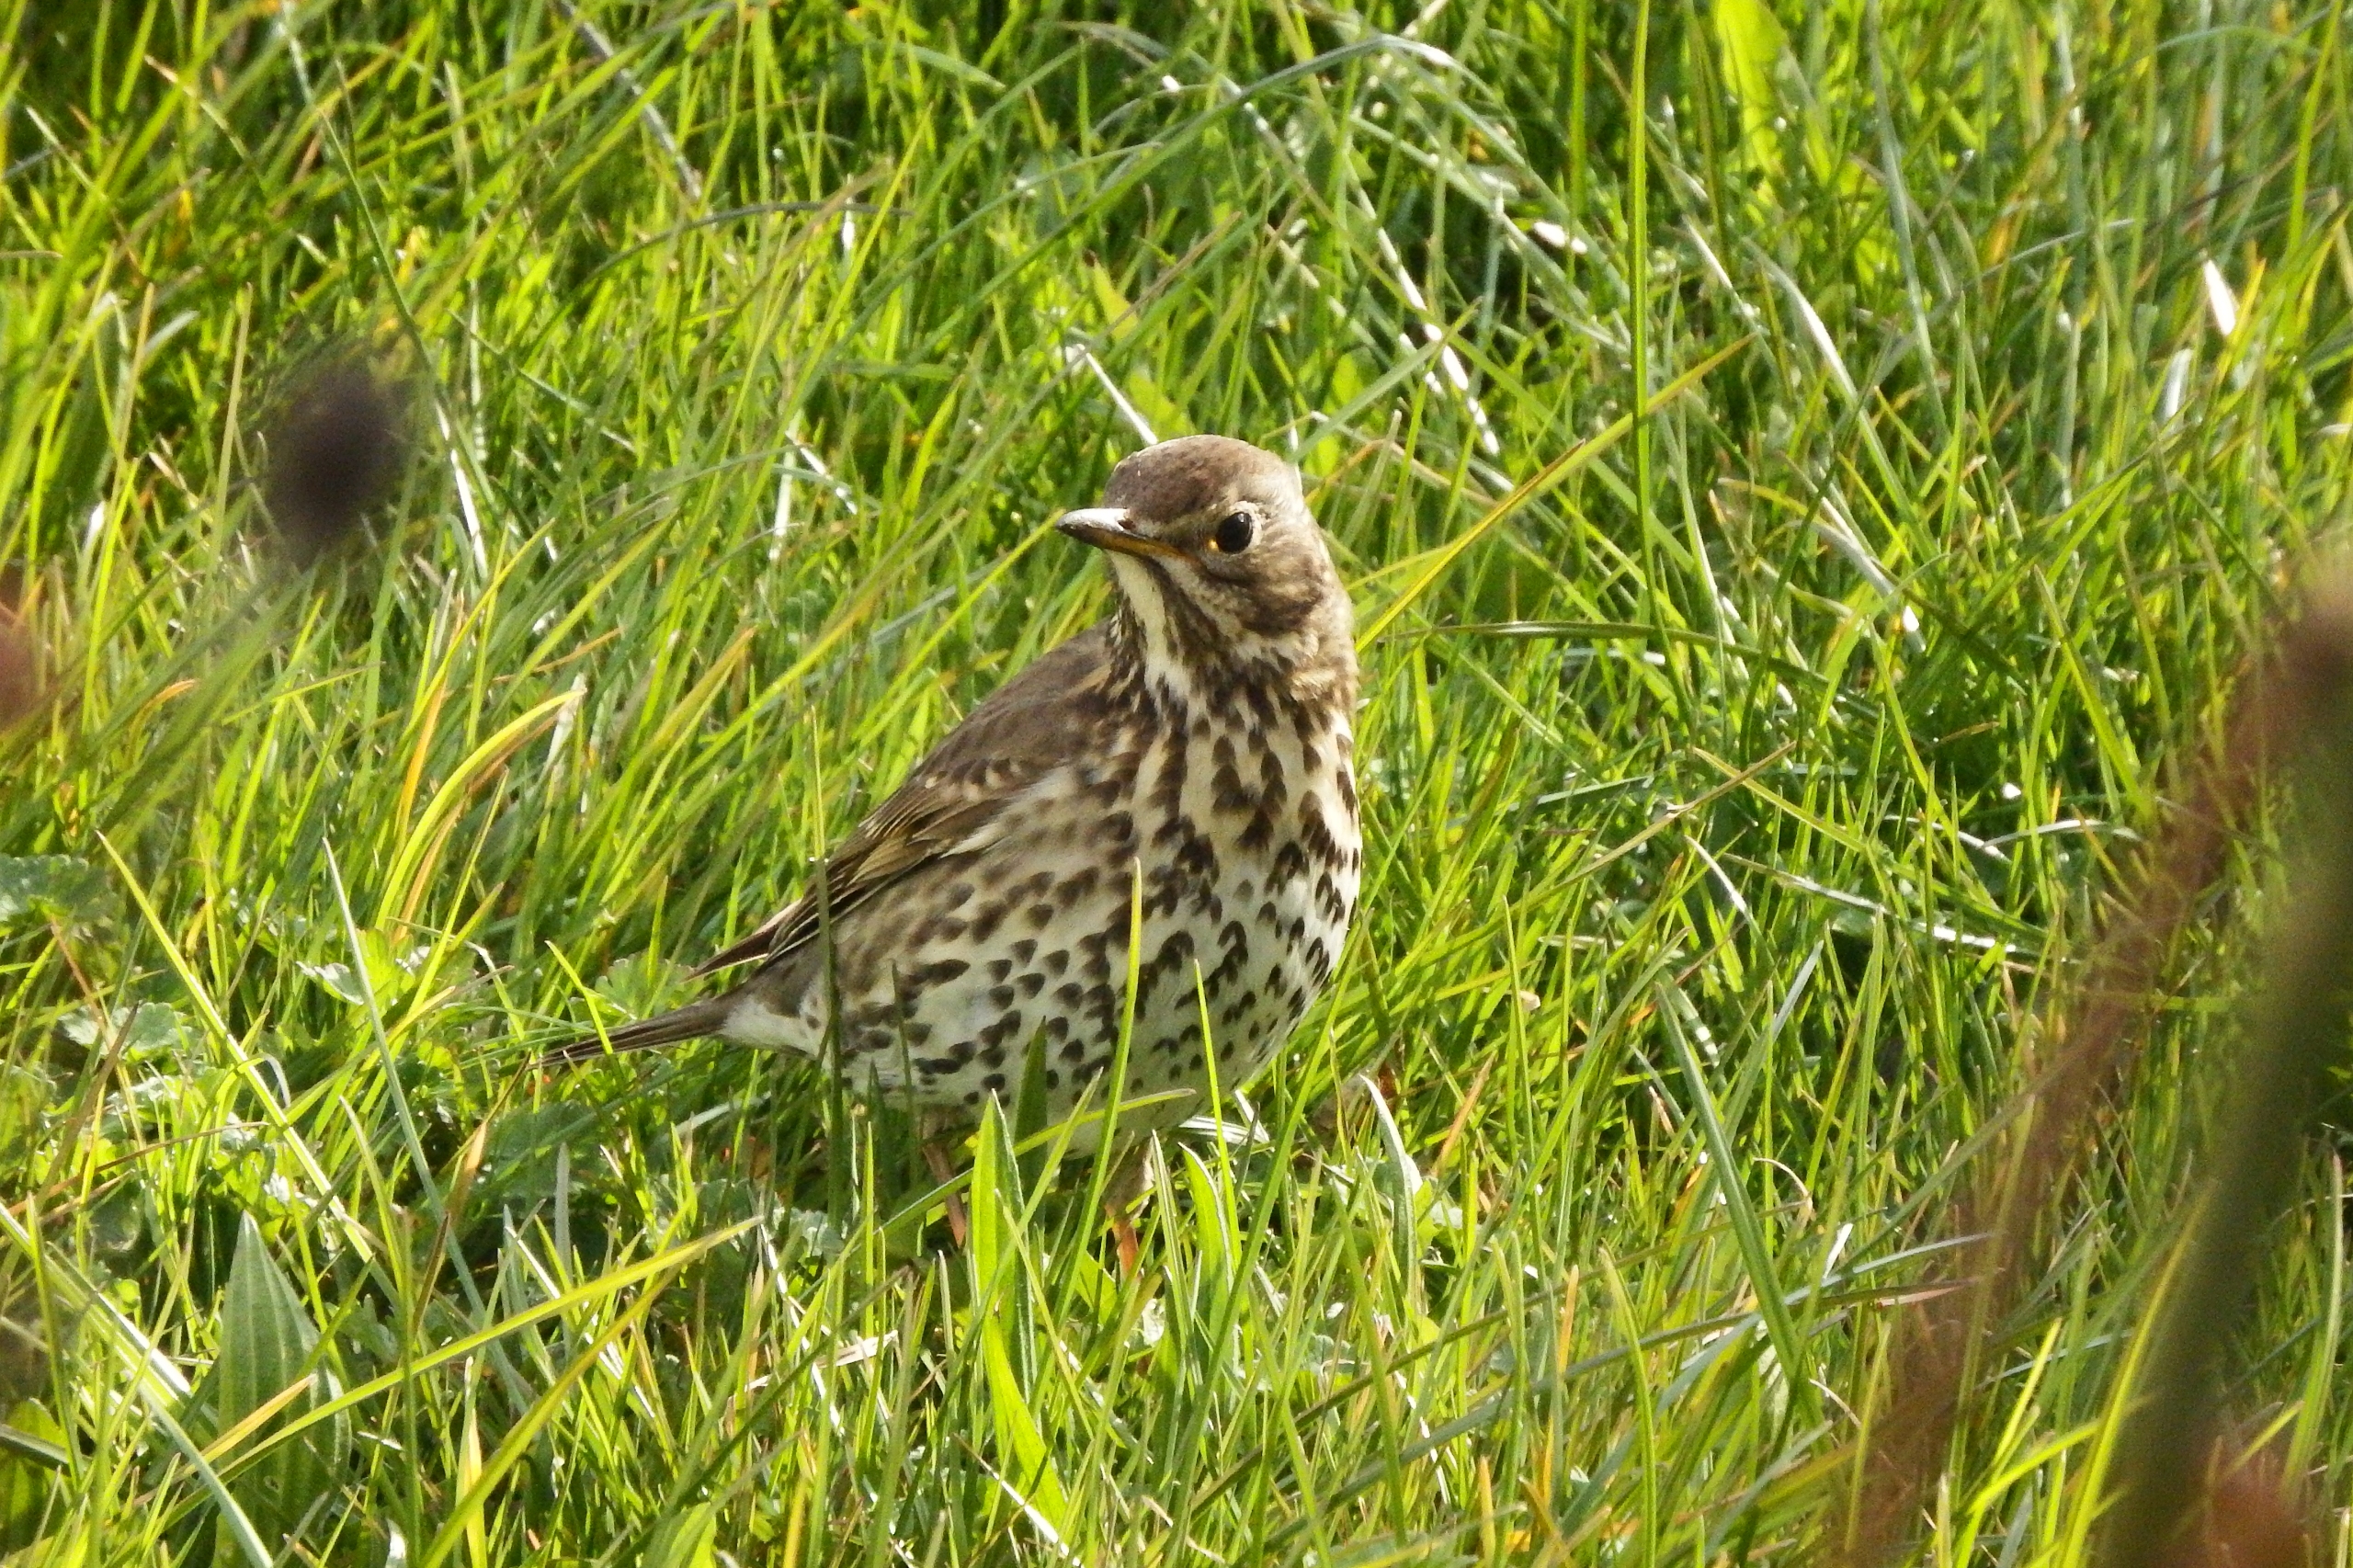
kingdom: Animalia
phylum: Chordata
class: Aves
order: Passeriformes
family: Turdidae
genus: Turdus
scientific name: Turdus philomelos
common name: Sangdrossel
